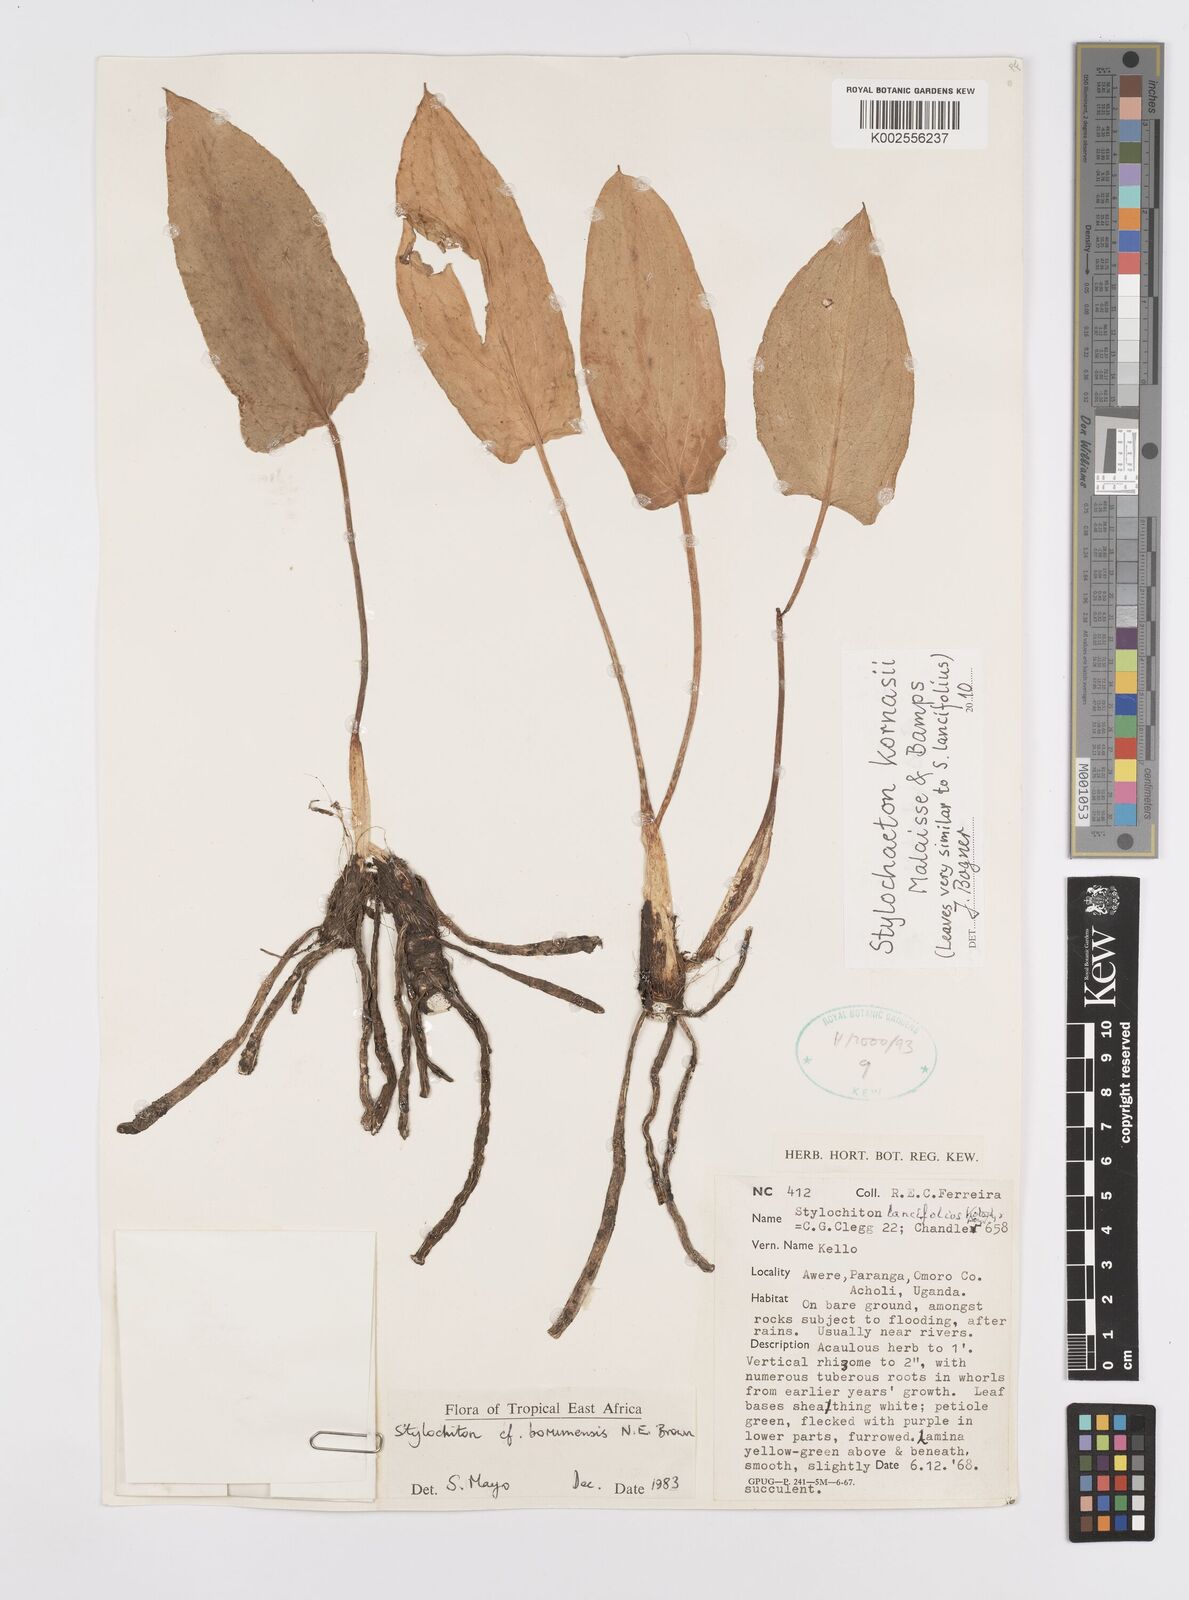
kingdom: Plantae
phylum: Tracheophyta
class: Liliopsida
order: Alismatales
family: Araceae
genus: Stylochaeton
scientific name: Stylochaeton kornasii
